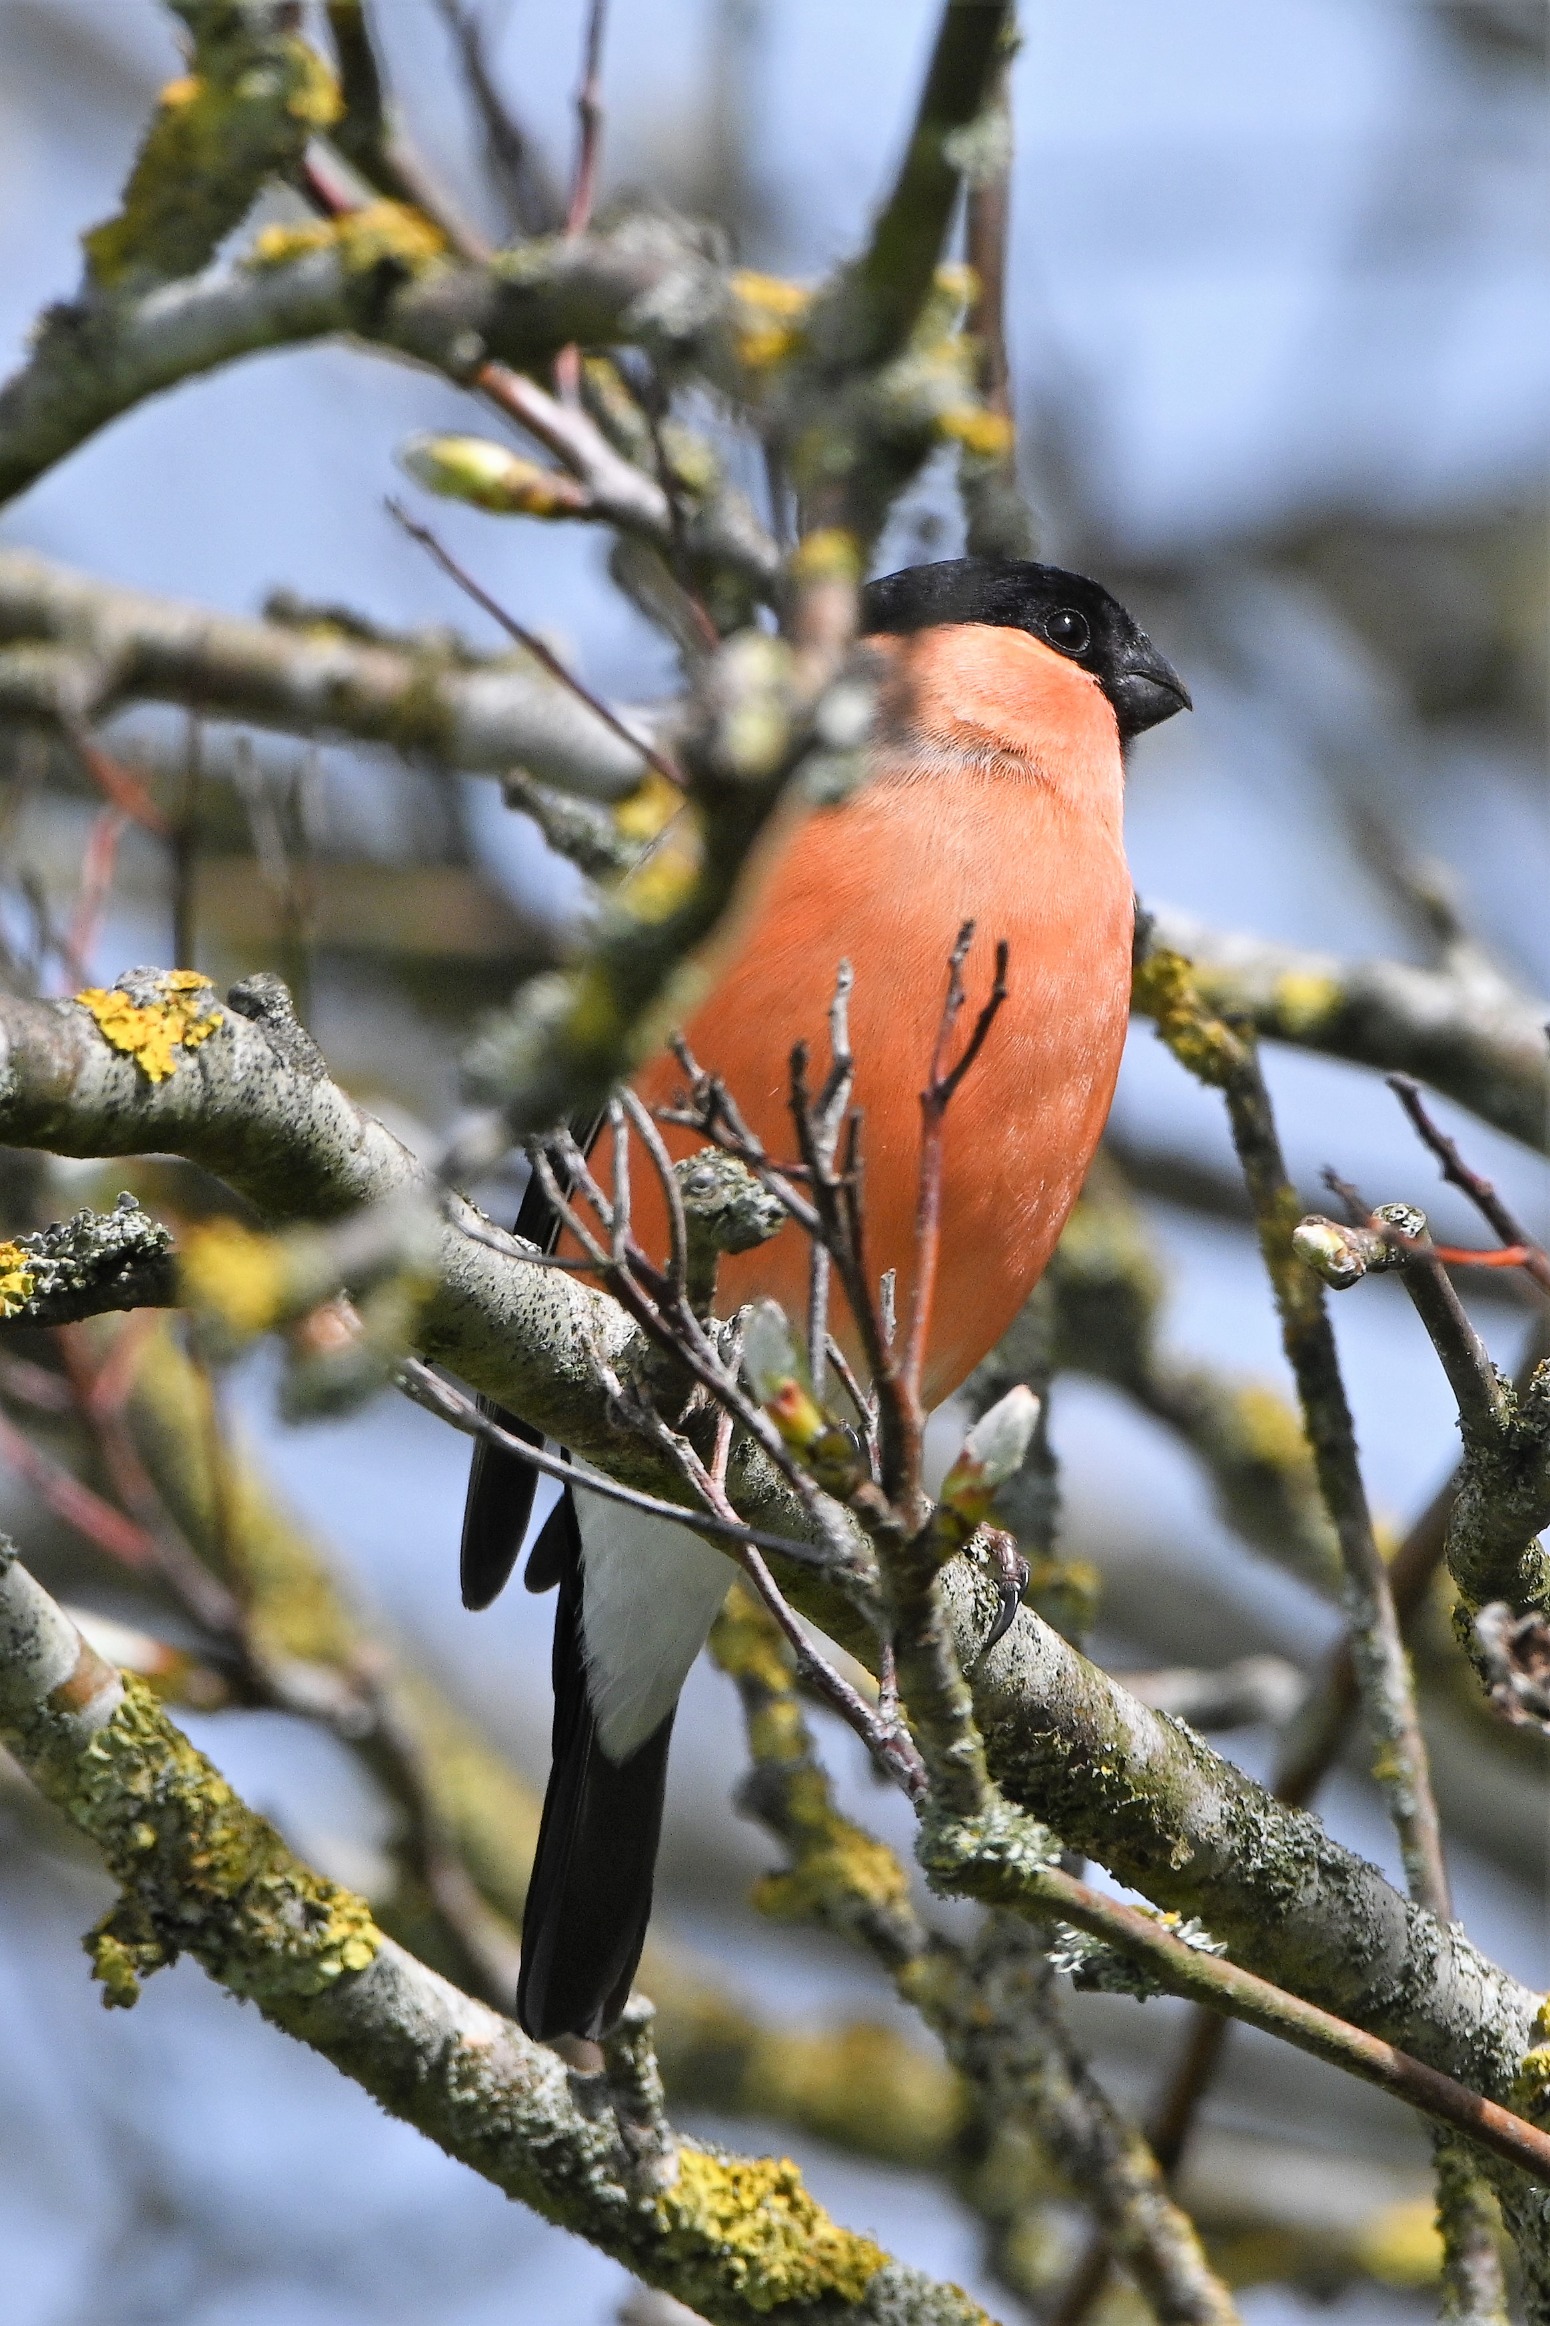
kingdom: Animalia
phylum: Chordata
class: Aves
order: Passeriformes
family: Fringillidae
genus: Pyrrhula
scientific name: Pyrrhula pyrrhula
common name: Dompap
